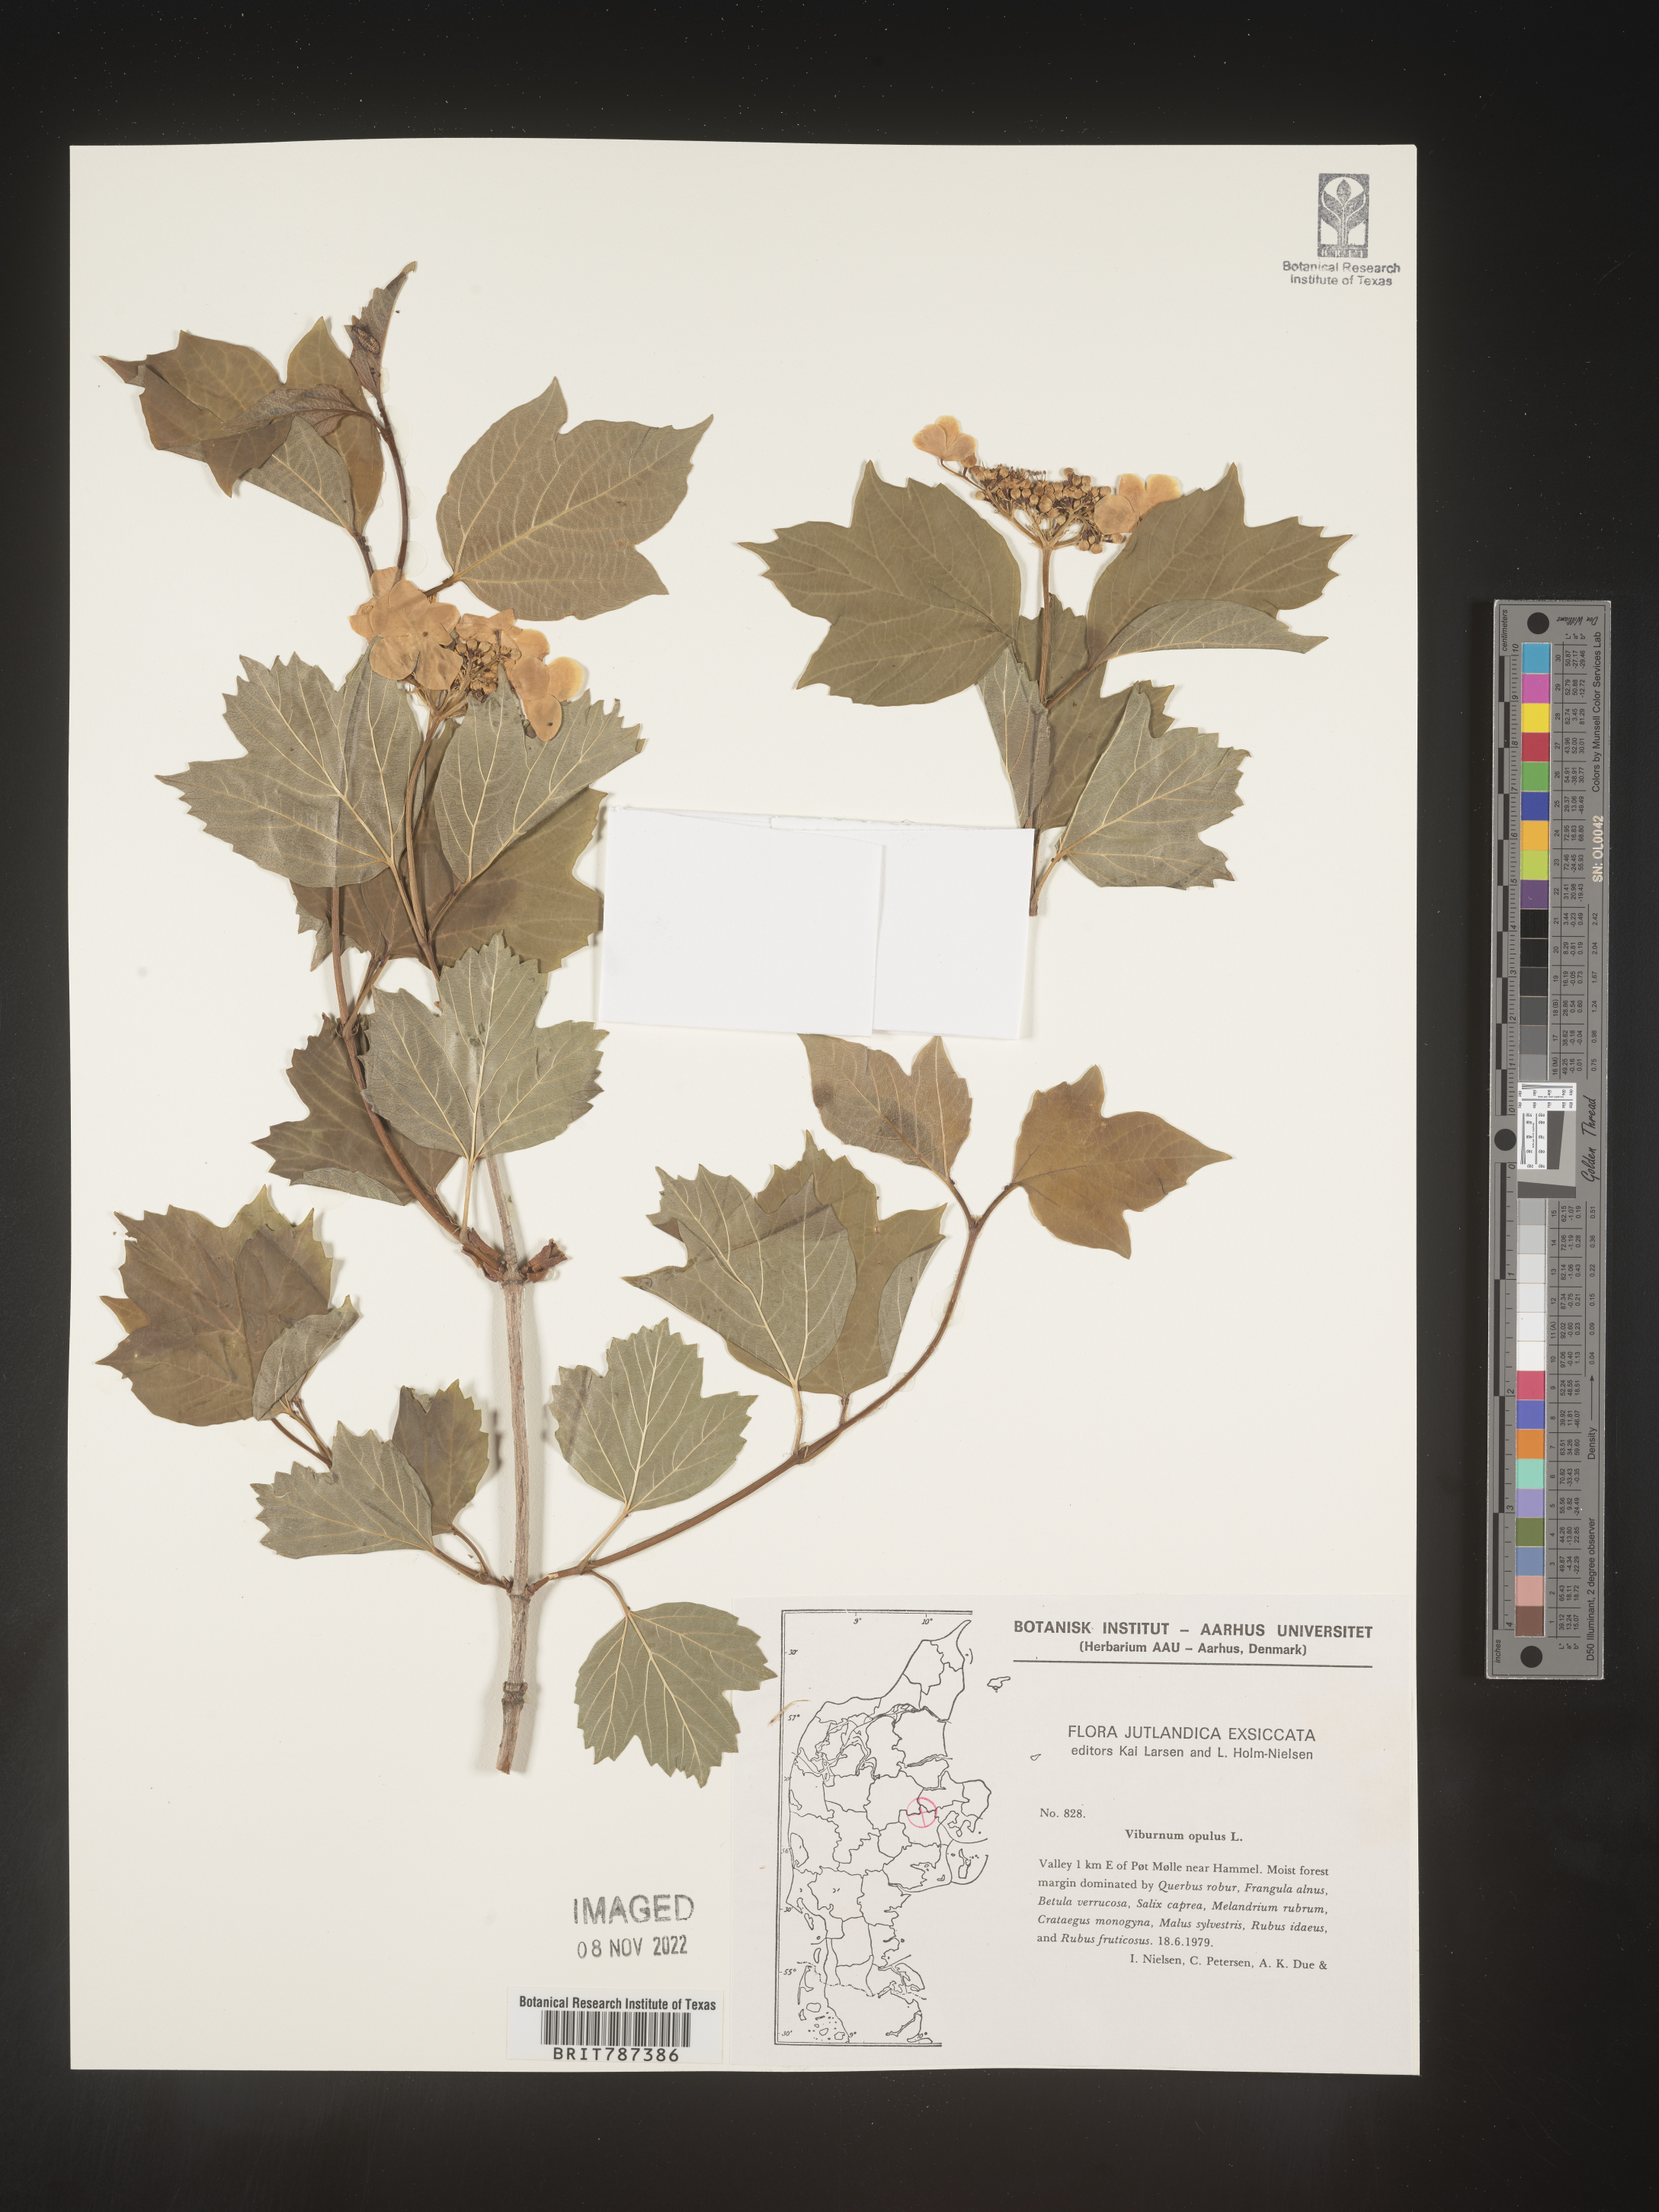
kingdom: Plantae
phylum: Tracheophyta
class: Magnoliopsida
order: Dipsacales
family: Viburnaceae
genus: Viburnum
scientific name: Viburnum opulus
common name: Guelder-rose
